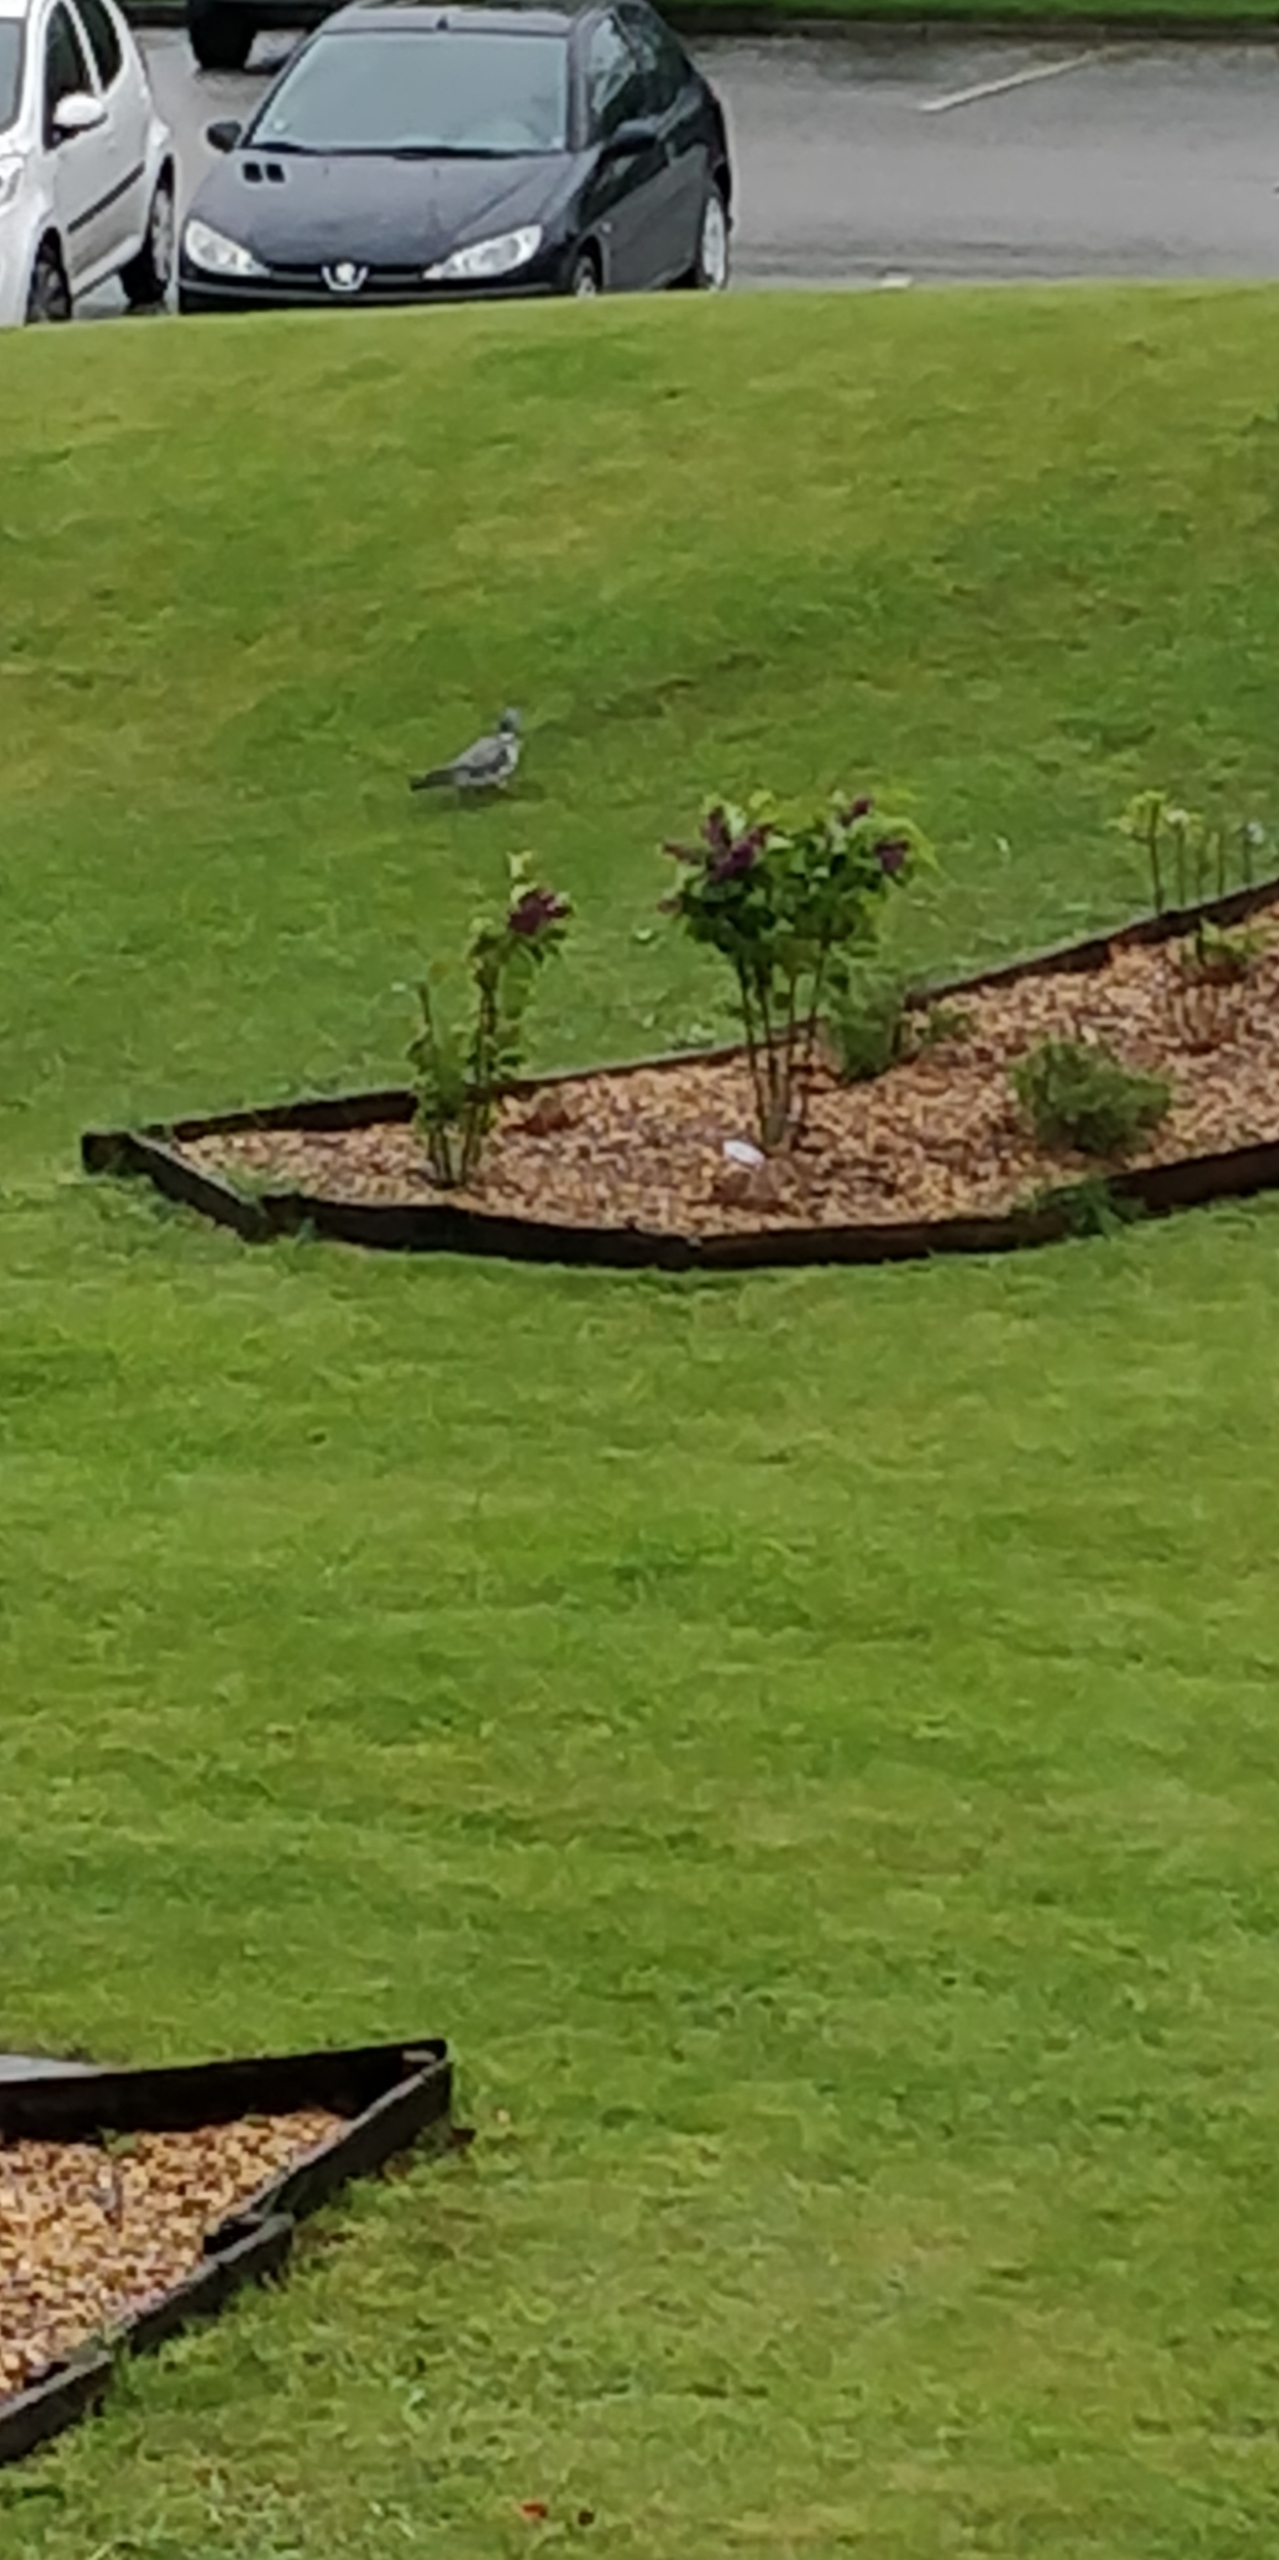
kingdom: Animalia
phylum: Chordata
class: Aves
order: Columbiformes
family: Columbidae
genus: Columba
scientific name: Columba palumbus
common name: Ringdue
